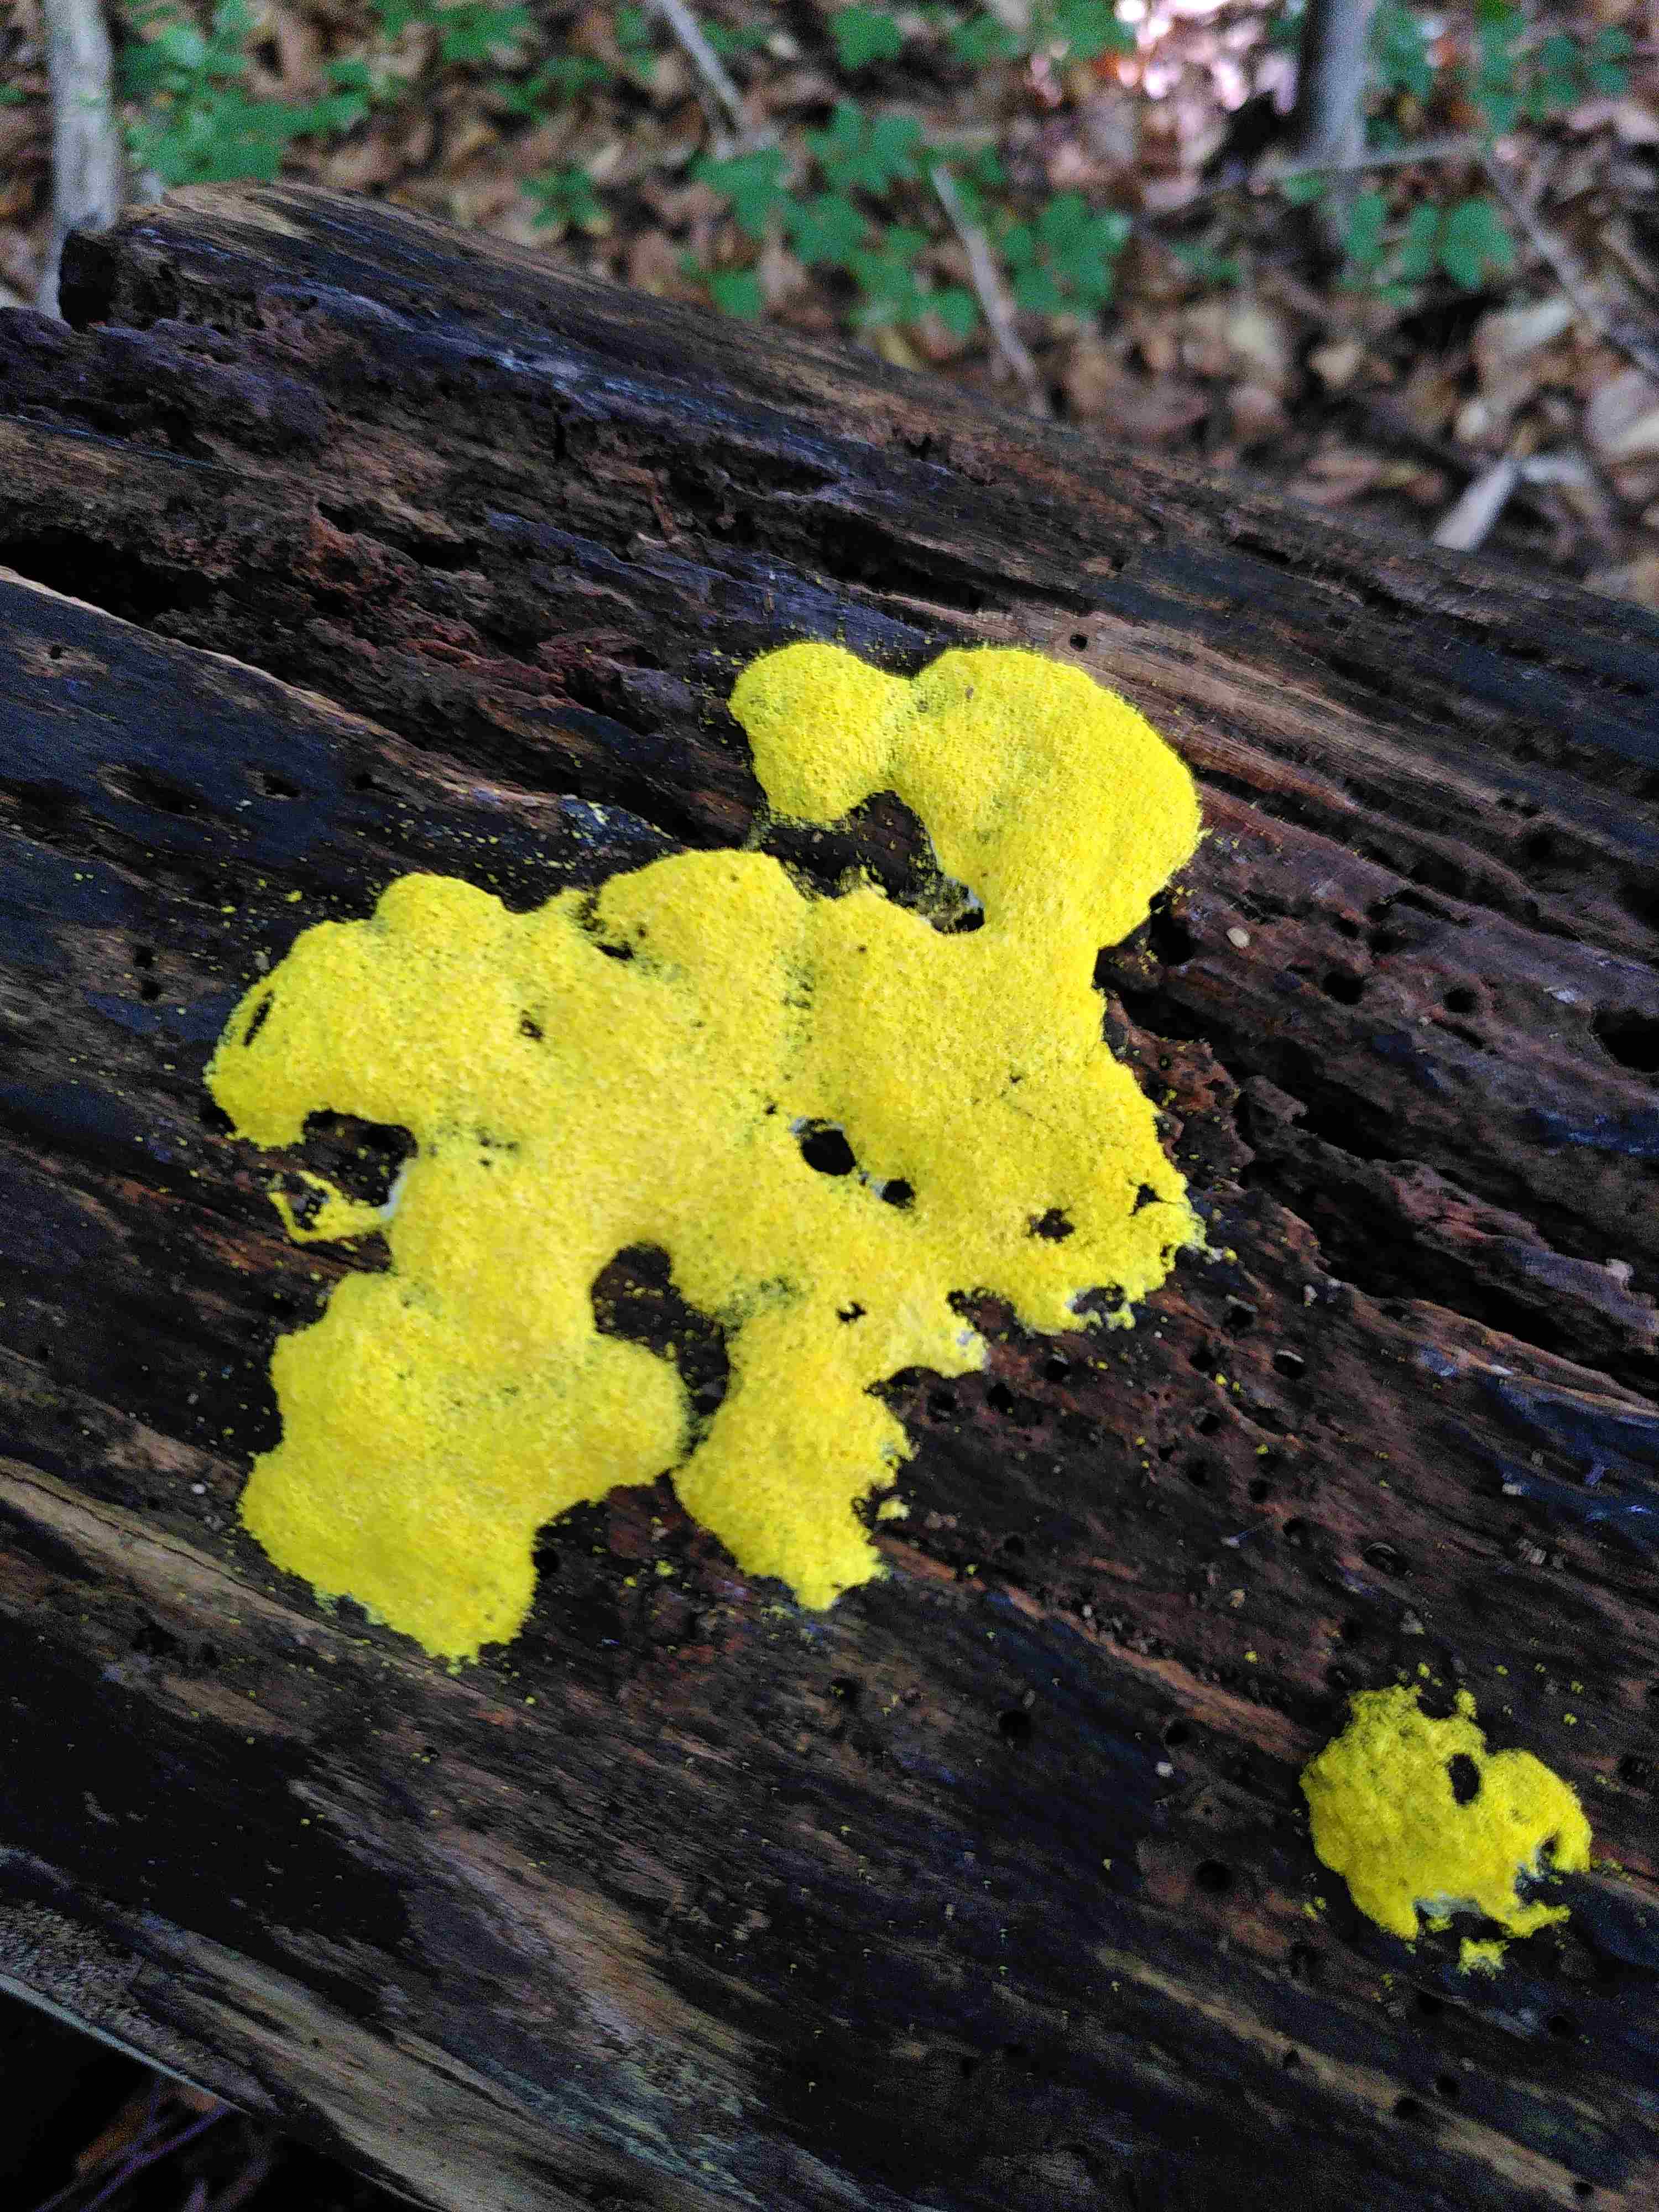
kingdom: Protozoa
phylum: Mycetozoa
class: Myxomycetes
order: Physarales
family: Physaraceae
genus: Fuligo
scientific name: Fuligo septica
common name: gul troldsmør
